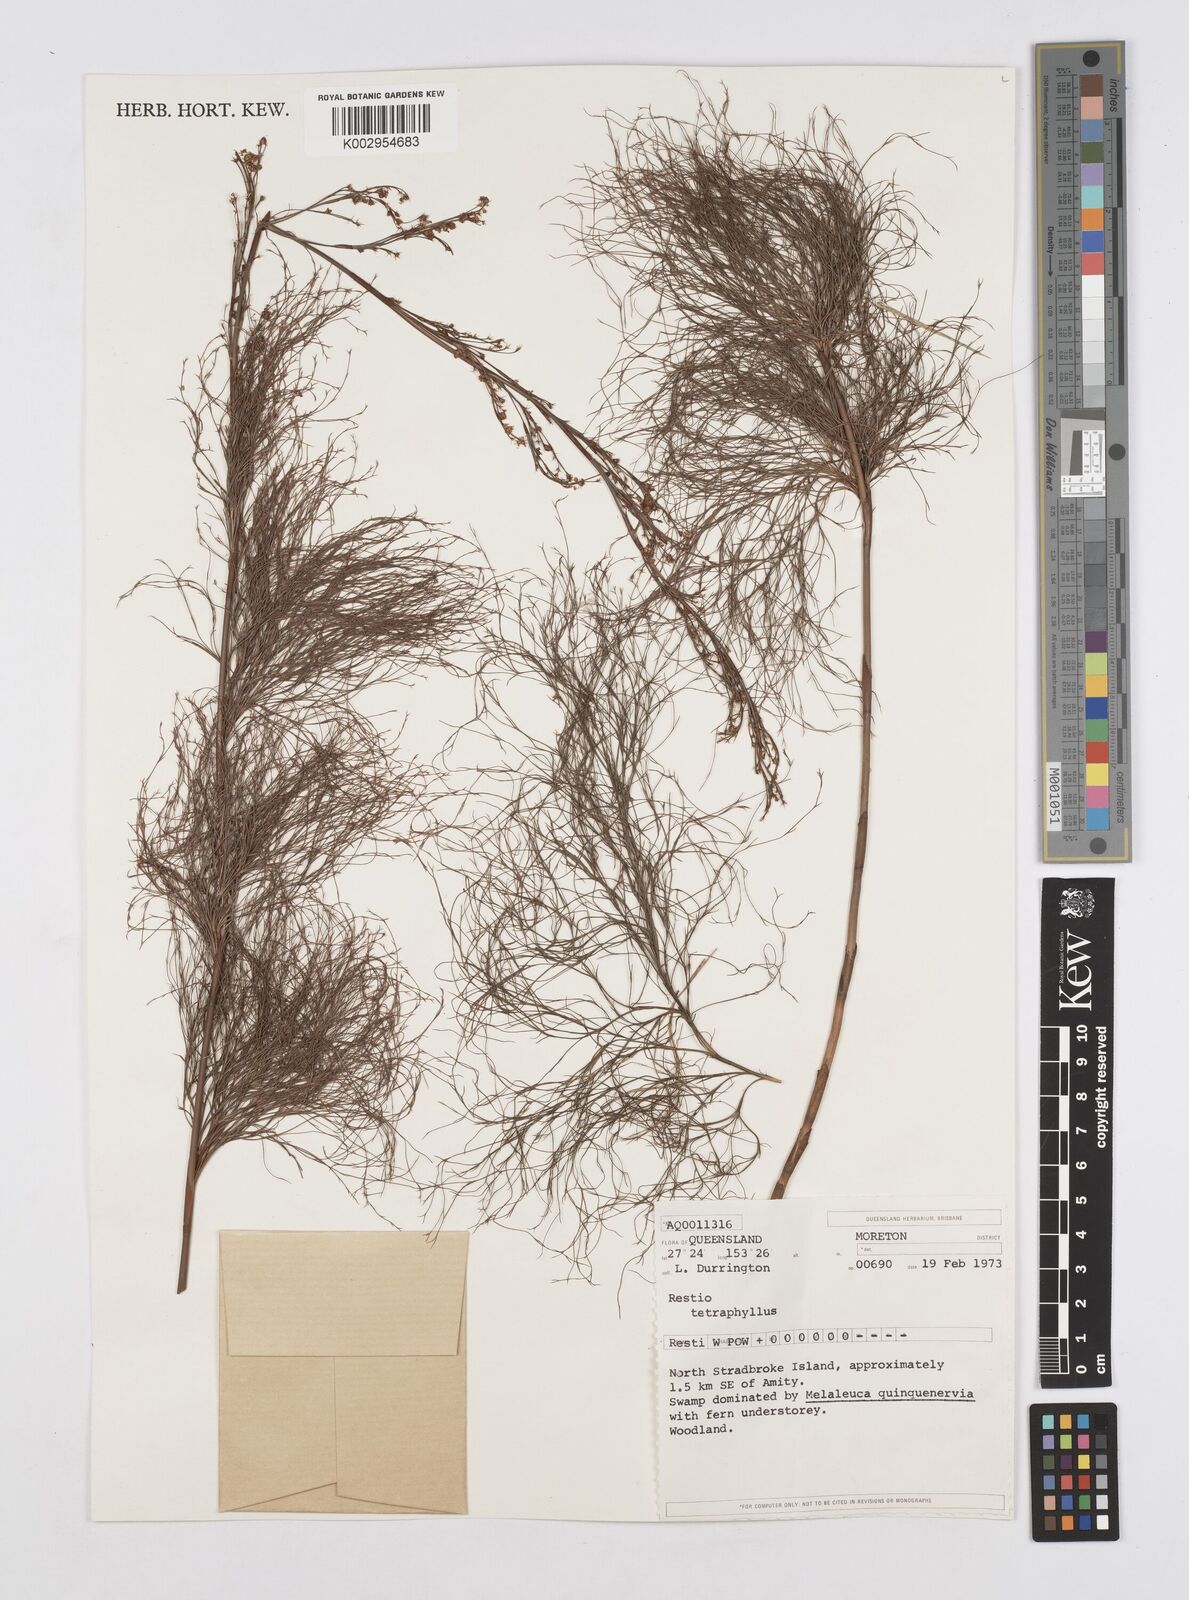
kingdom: Plantae
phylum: Tracheophyta
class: Liliopsida
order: Poales
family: Restionaceae
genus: Baloskion
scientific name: Baloskion tetraphyllum
